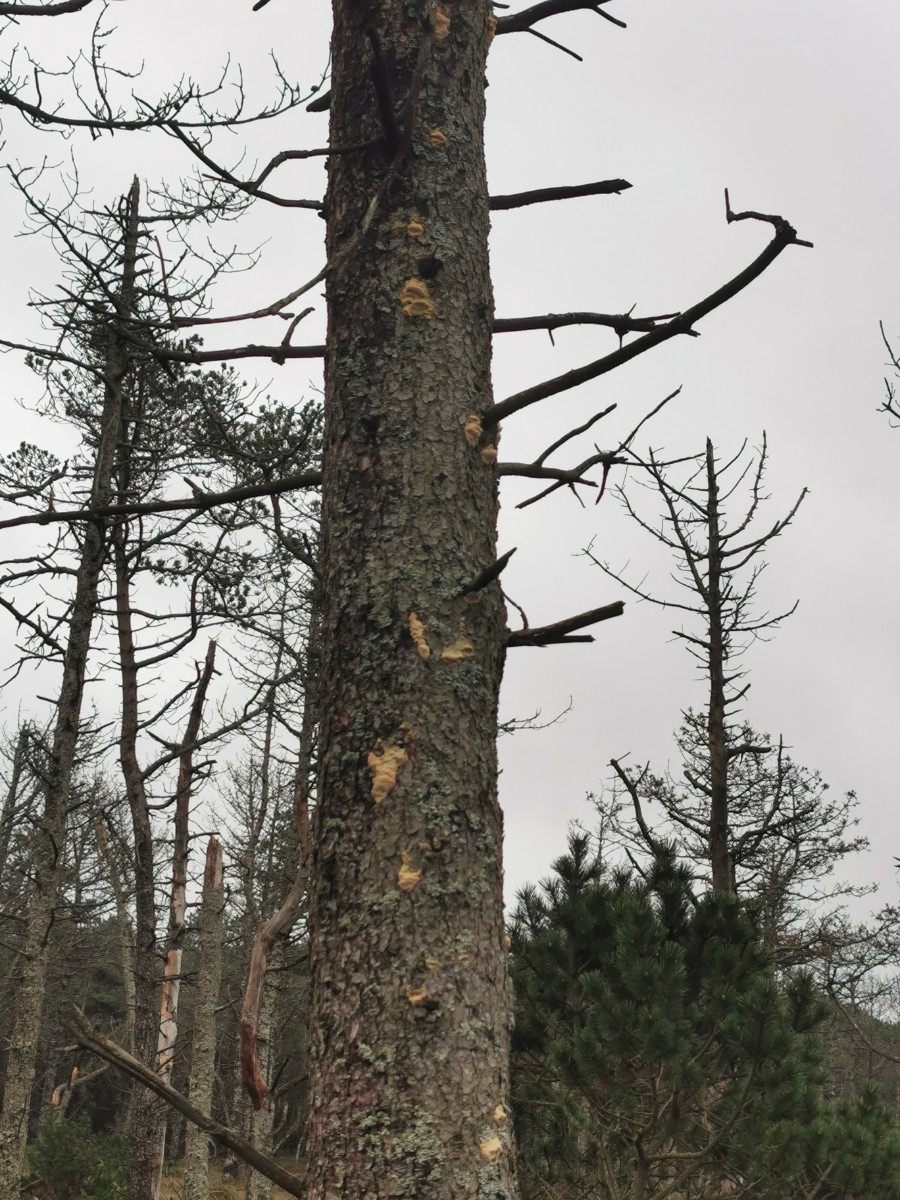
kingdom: Fungi
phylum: Basidiomycota
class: Agaricomycetes
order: Polyporales
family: Polyporaceae
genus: Diplomitoporus
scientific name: Diplomitoporus flavescens
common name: fyrre-elastikporesvamp
